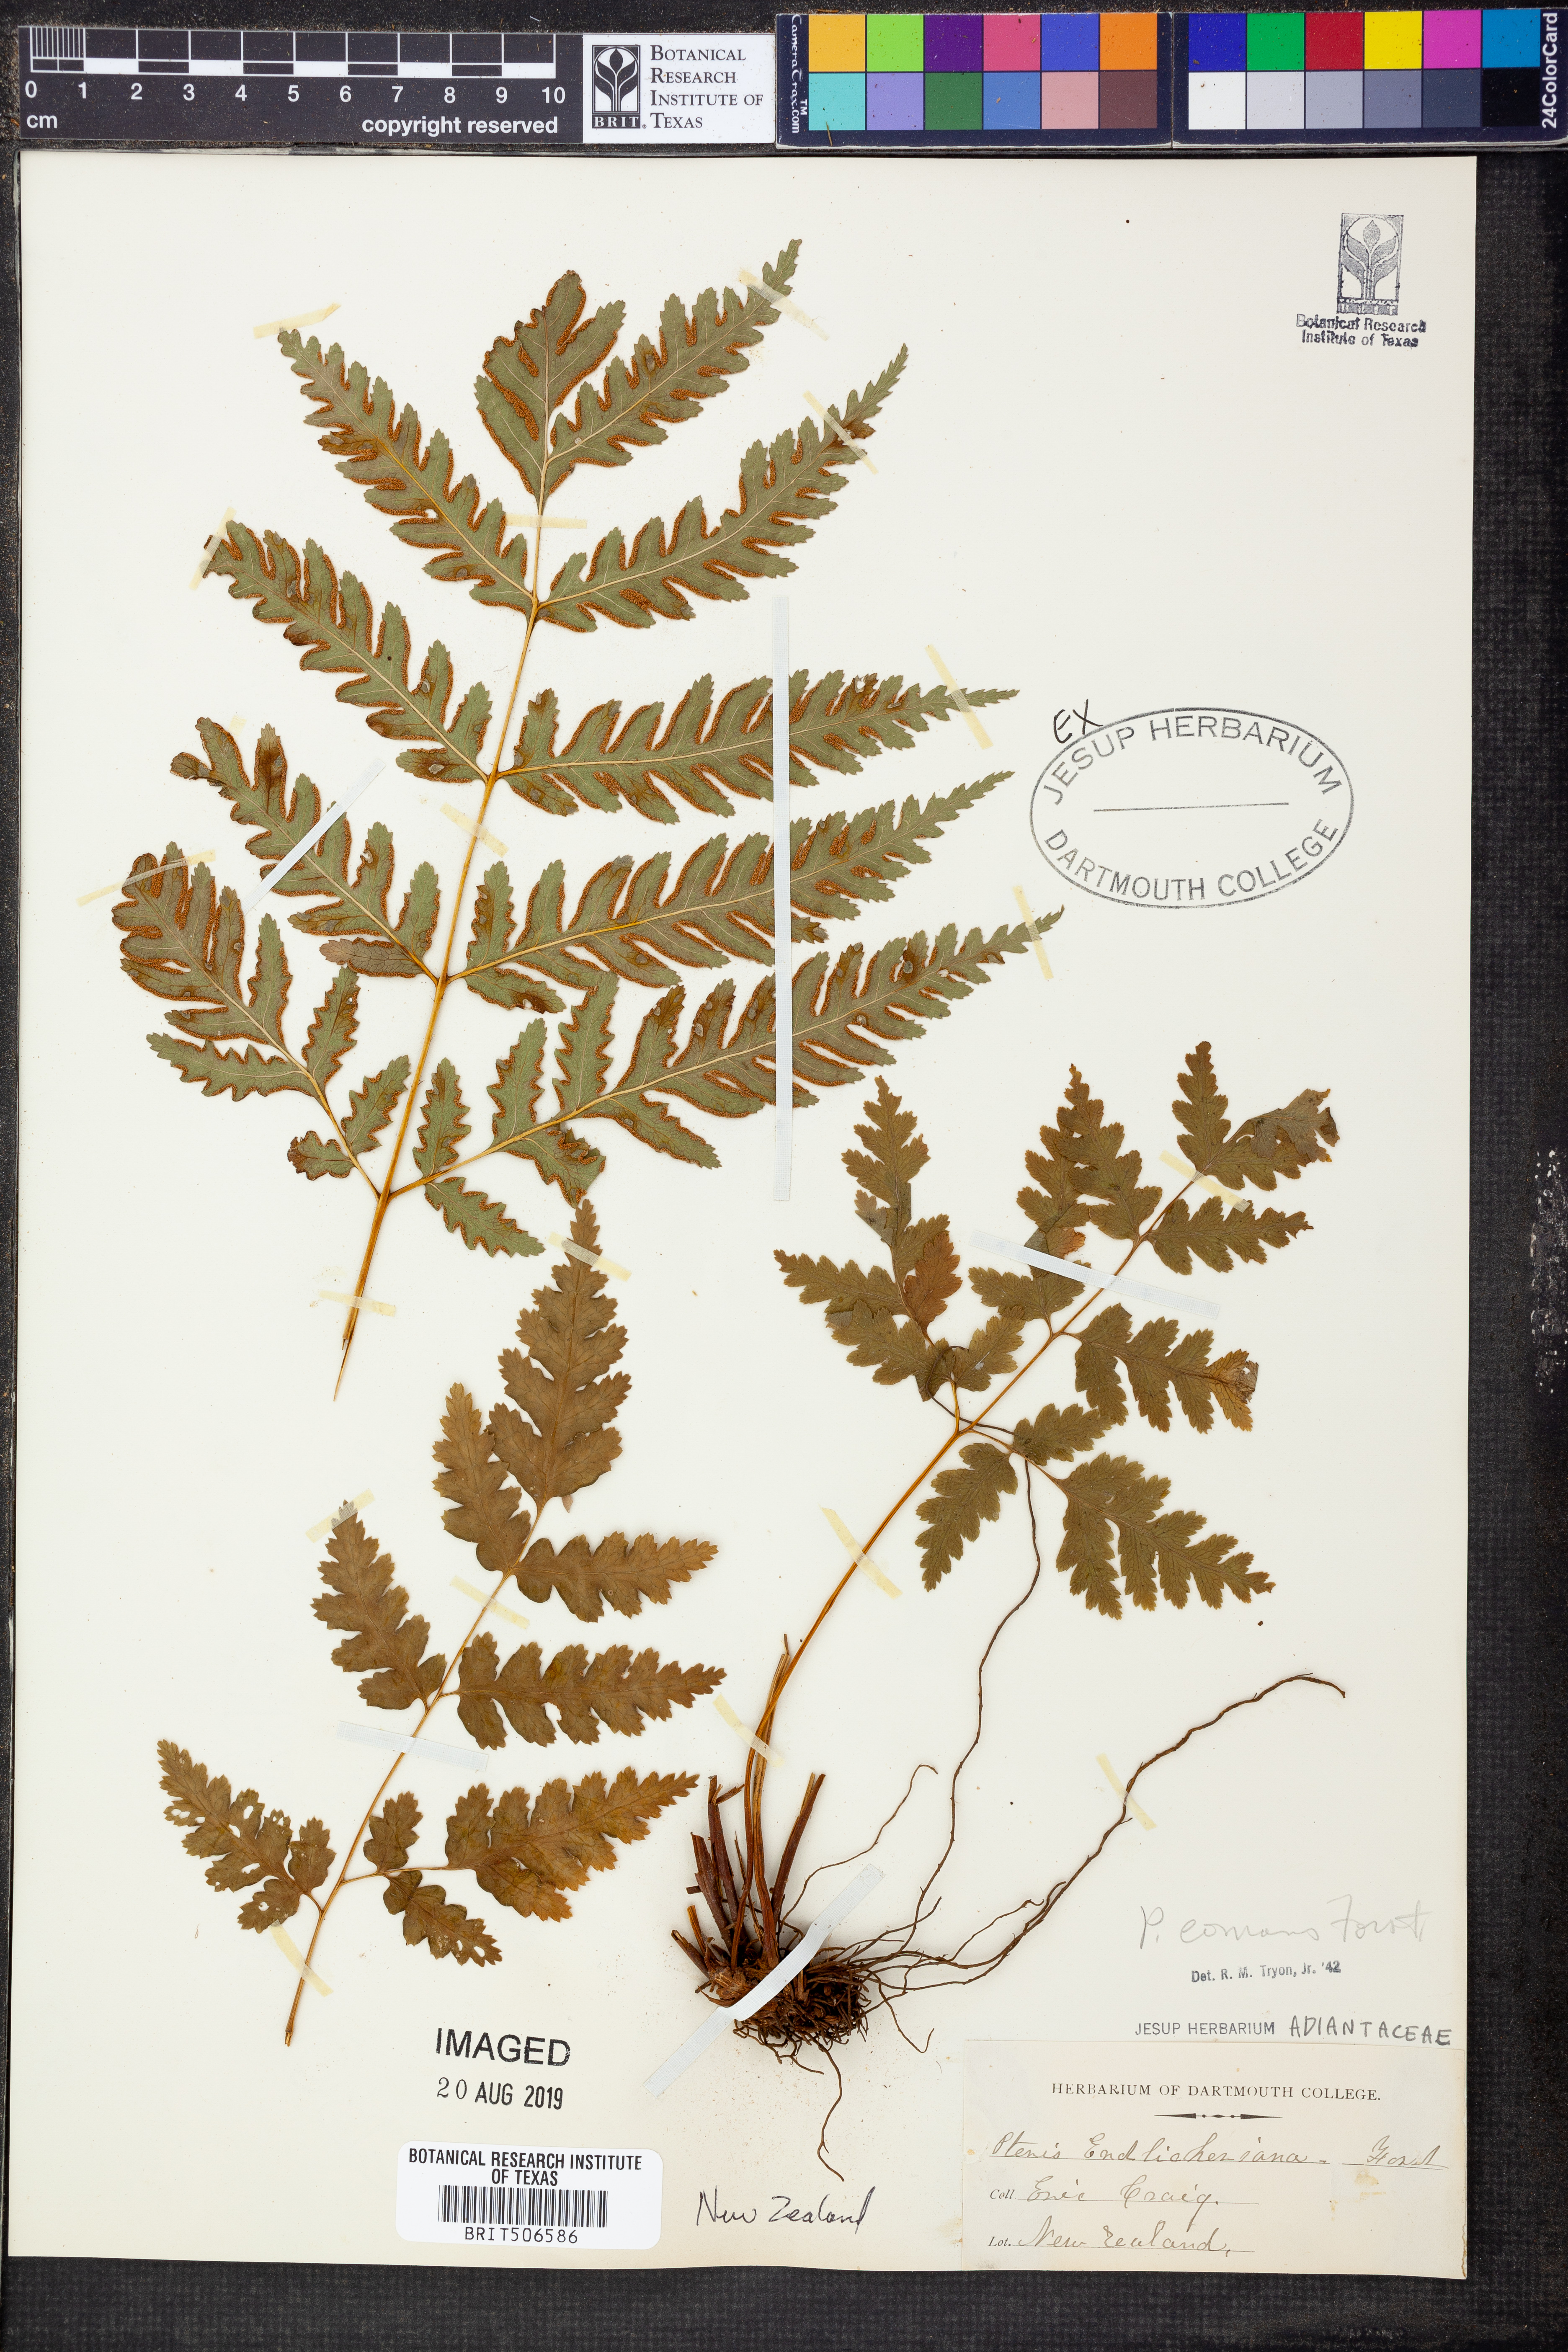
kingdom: Plantae
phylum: Tracheophyta
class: Polypodiopsida
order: Polypodiales
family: Pteridaceae
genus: Pteris
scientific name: Pteris comans
